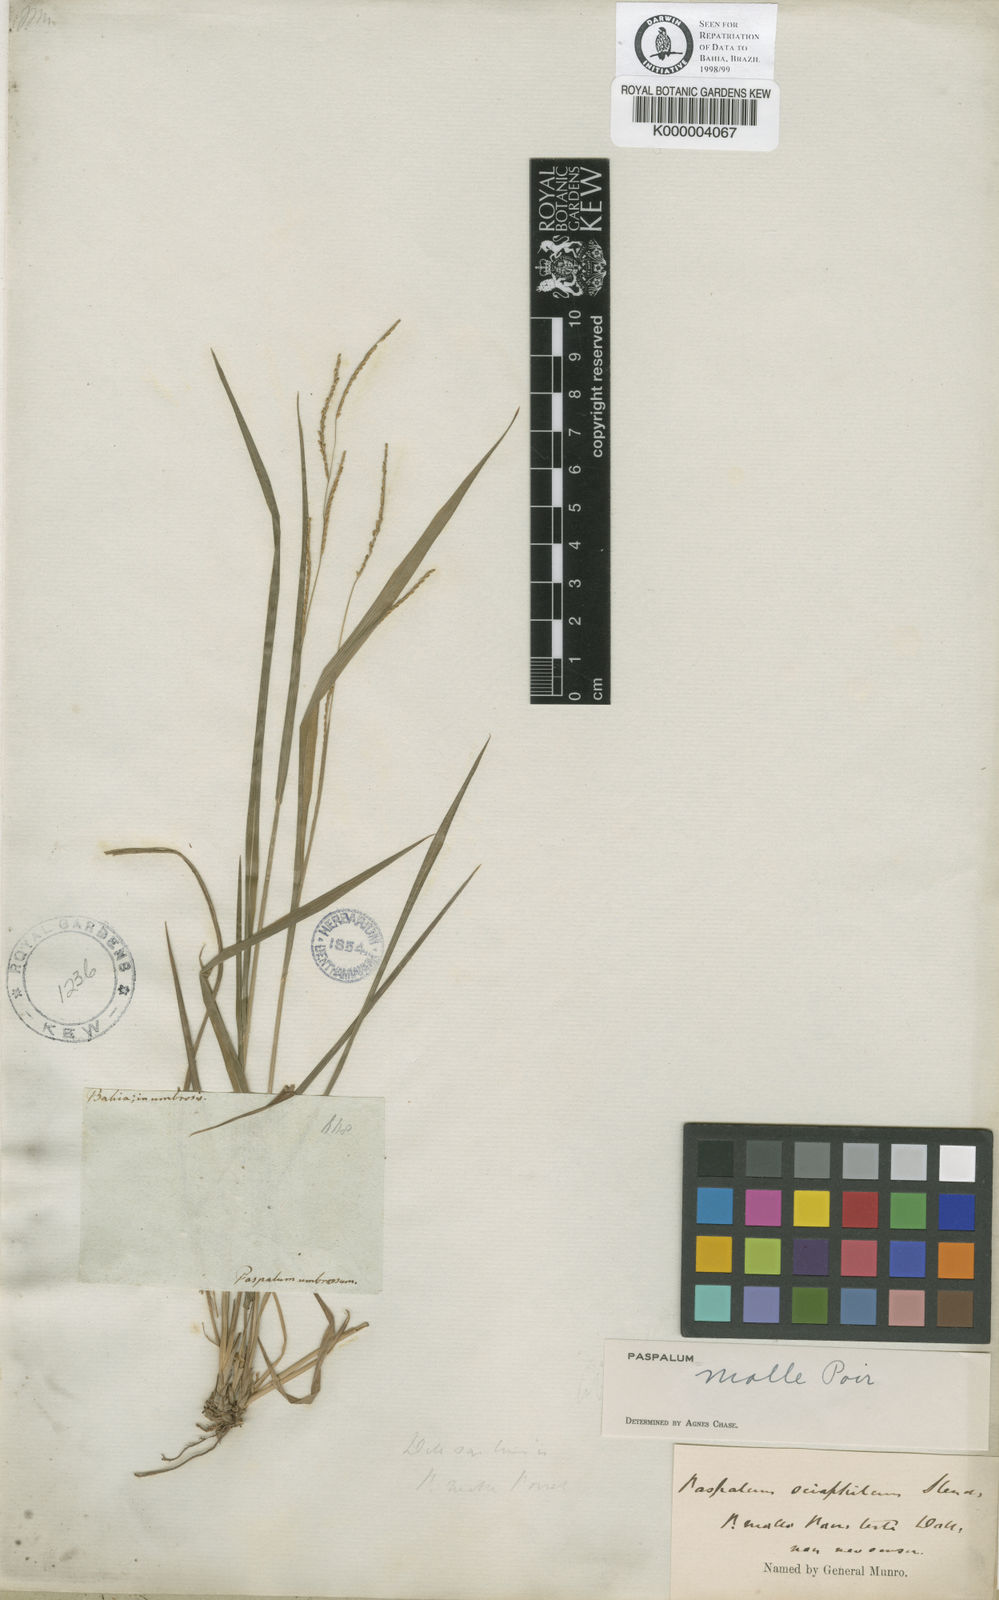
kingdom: Plantae
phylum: Tracheophyta
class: Liliopsida
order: Poales
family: Poaceae
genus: Paspalum
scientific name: Paspalum molle
